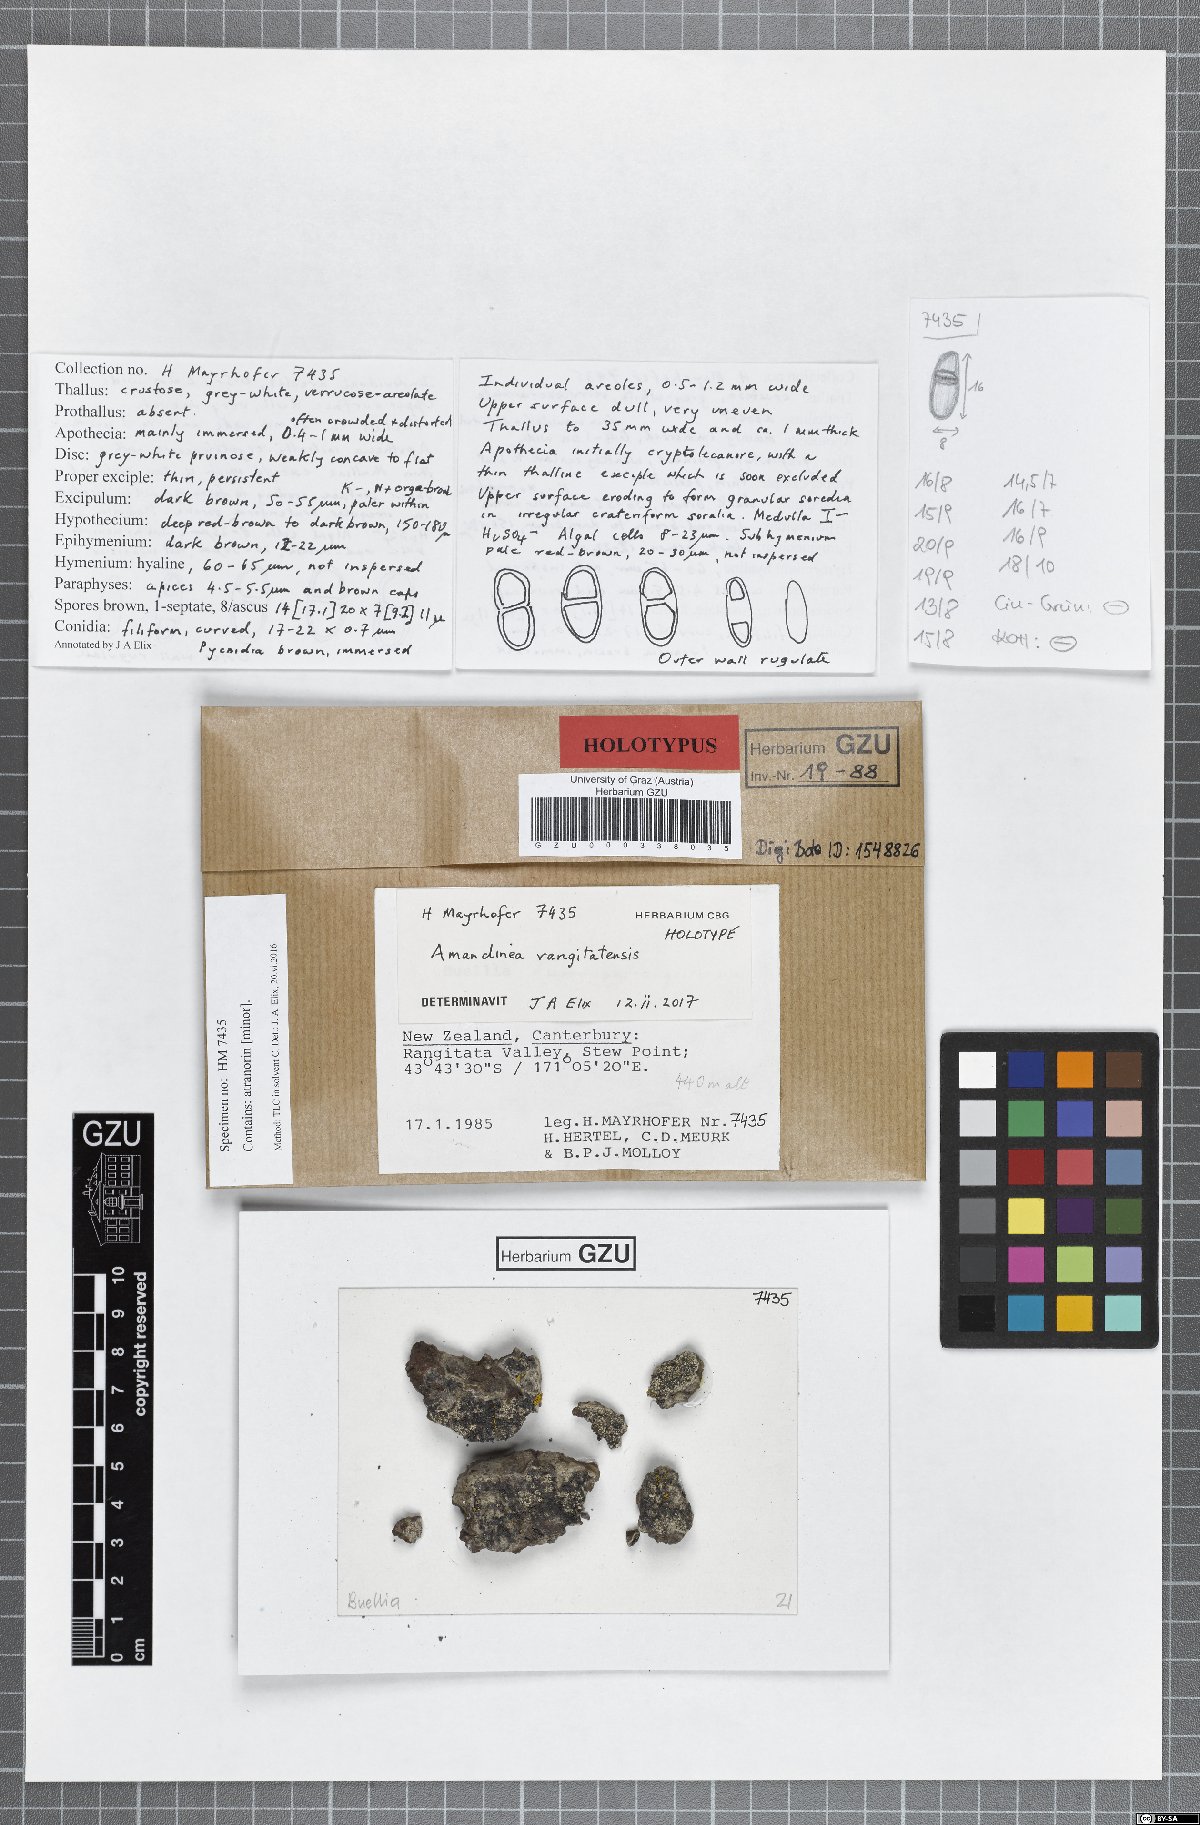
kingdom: Fungi
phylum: Ascomycota
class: Lecanoromycetes
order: Caliciales
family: Caliciaceae
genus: Amandinea
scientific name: Amandinea rangitatensis
